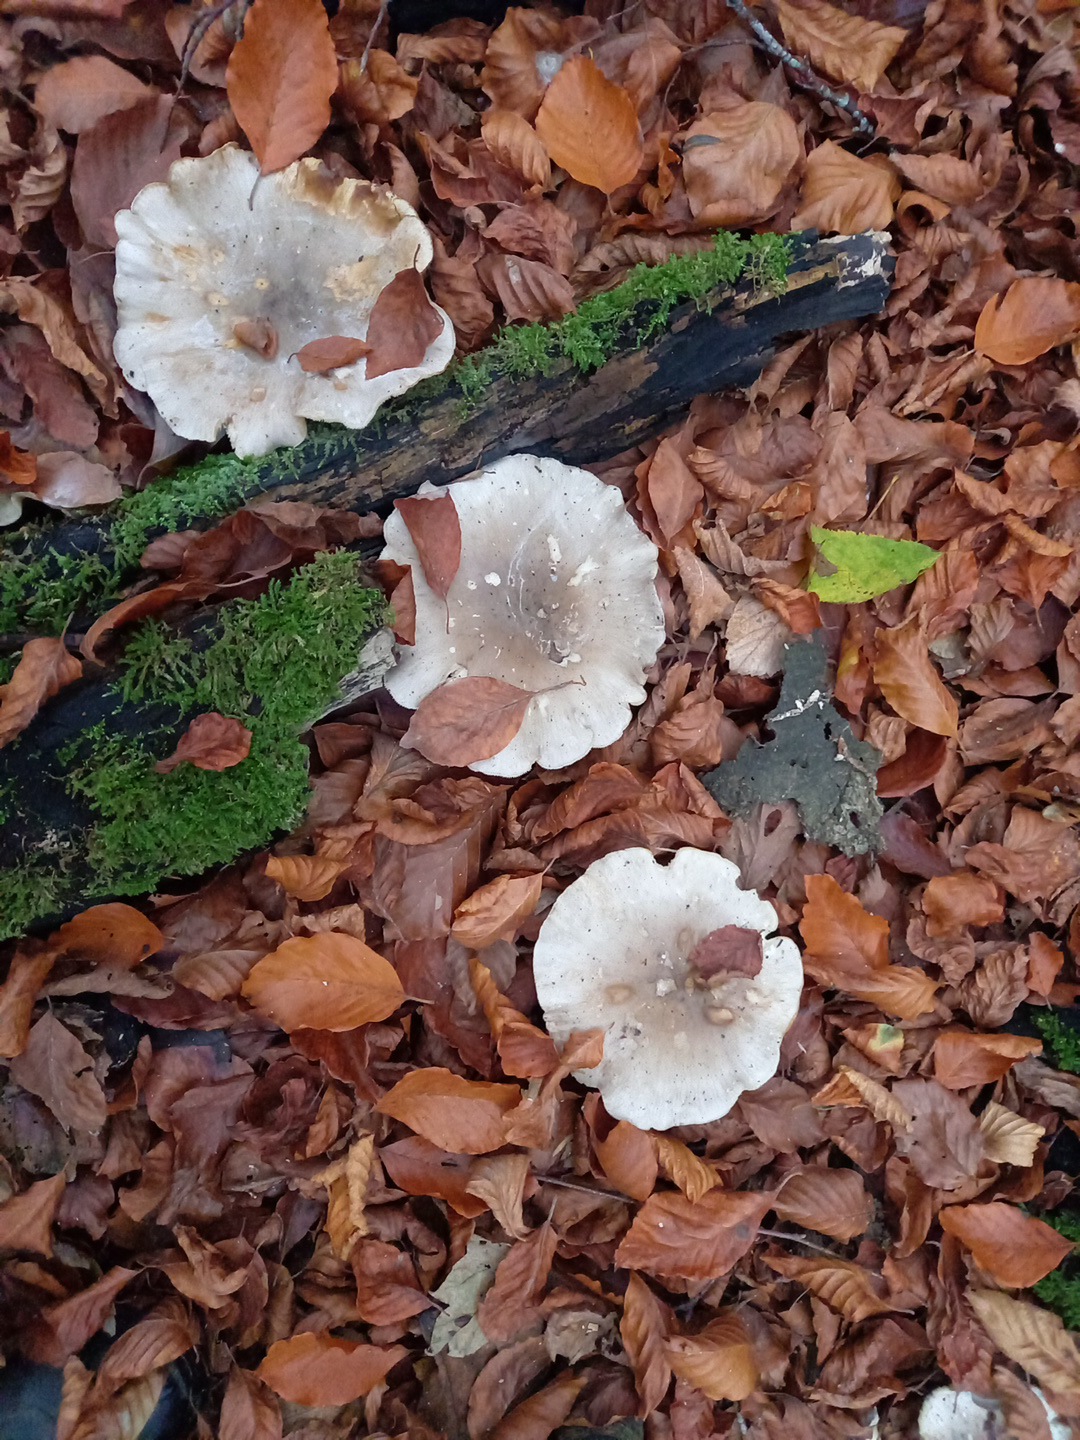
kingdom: Fungi
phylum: Basidiomycota
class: Agaricomycetes
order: Agaricales
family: Tricholomataceae
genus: Clitocybe
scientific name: Clitocybe nebularis
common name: tåge-tragthat
